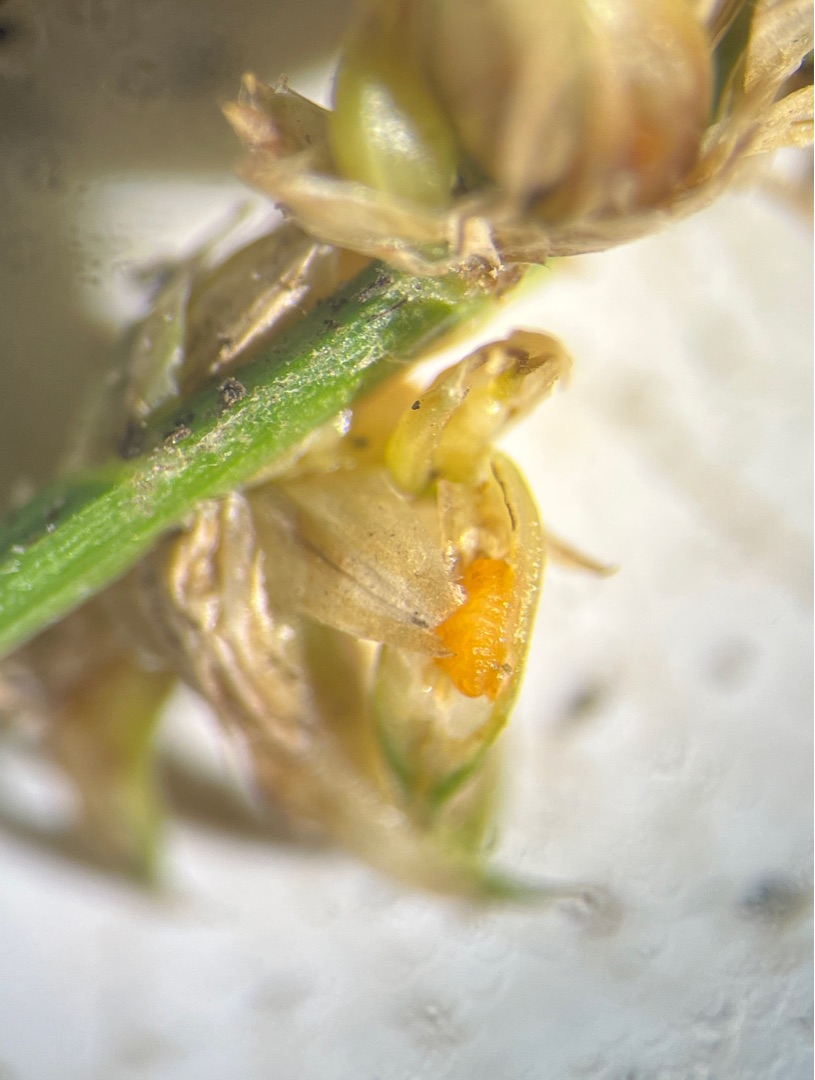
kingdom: Animalia
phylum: Arthropoda
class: Insecta
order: Diptera
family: Cecidomyiidae
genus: Wachtliella
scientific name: Wachtliella caricis
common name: Frugthylstergalmyg
